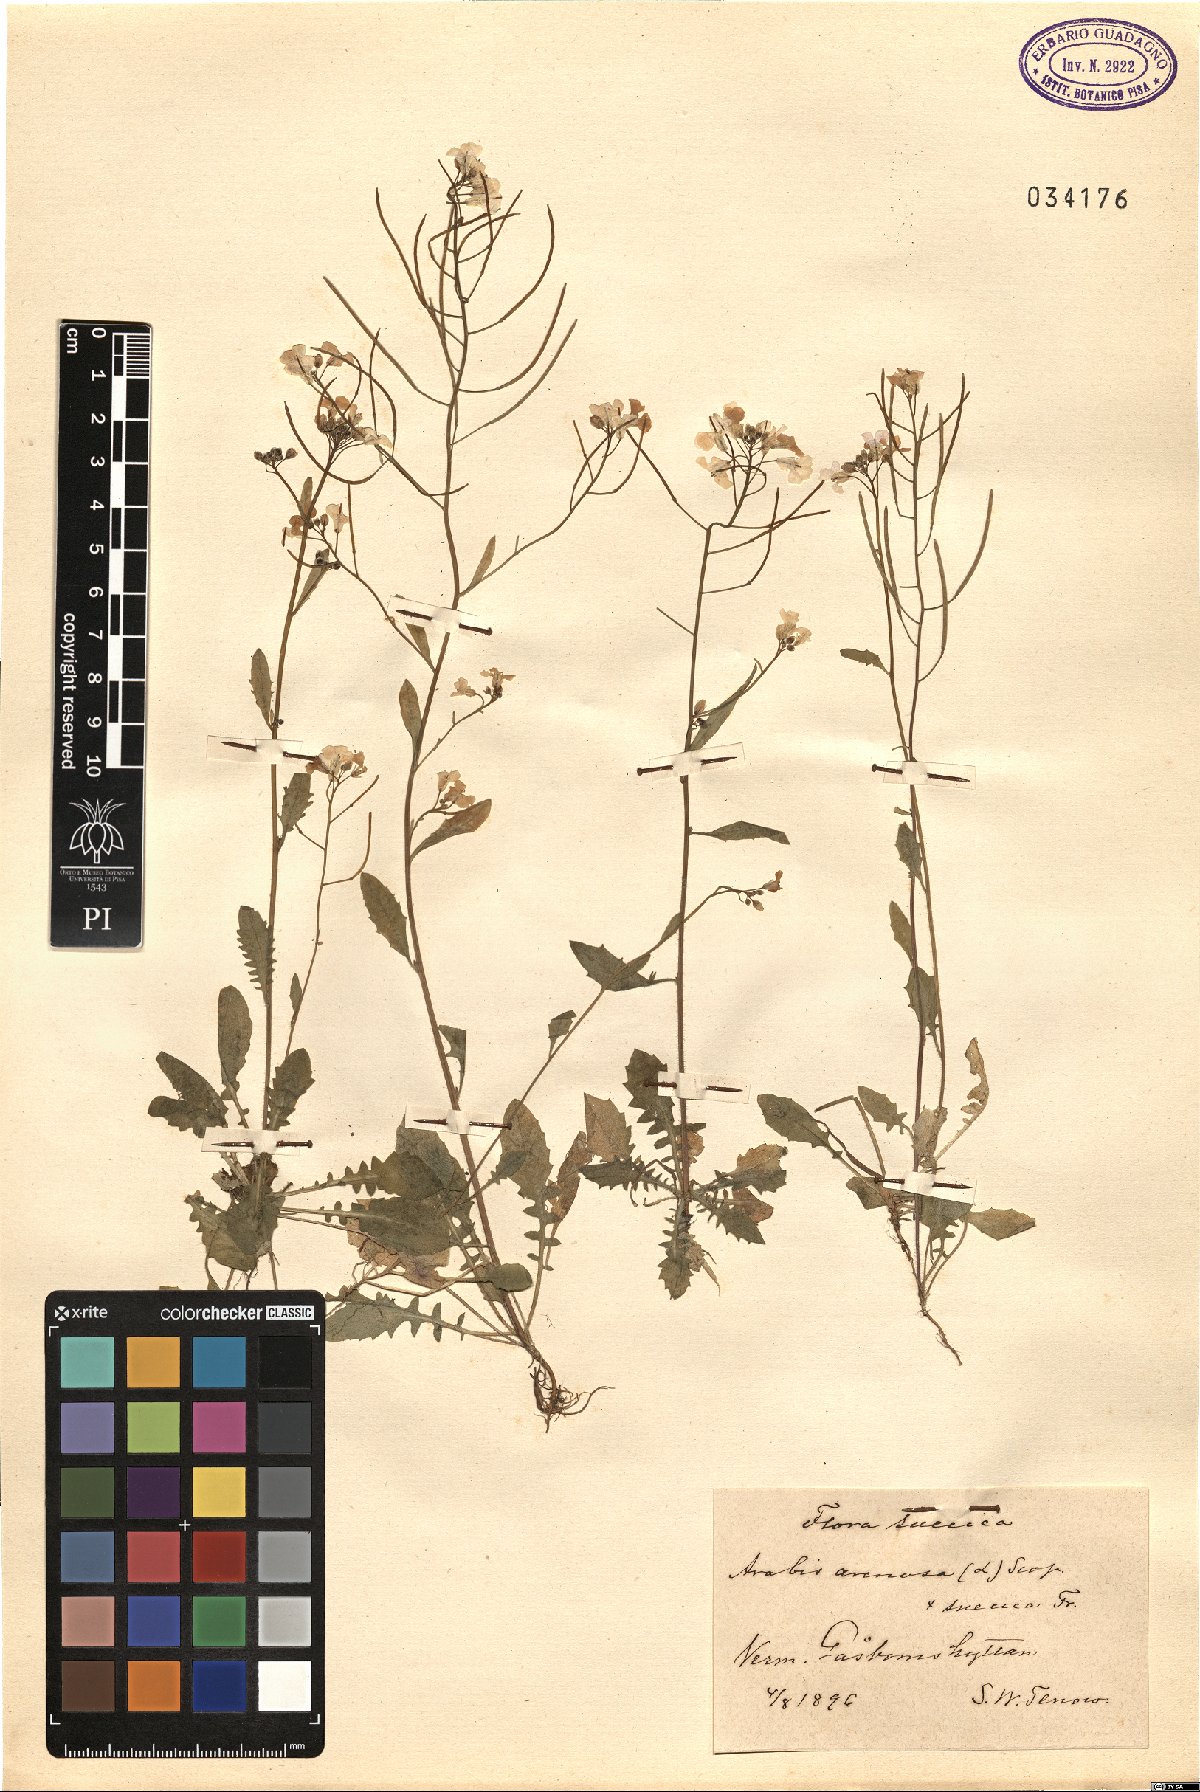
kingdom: Plantae
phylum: Tracheophyta
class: Magnoliopsida
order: Brassicales
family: Brassicaceae
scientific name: Brassicaceae
